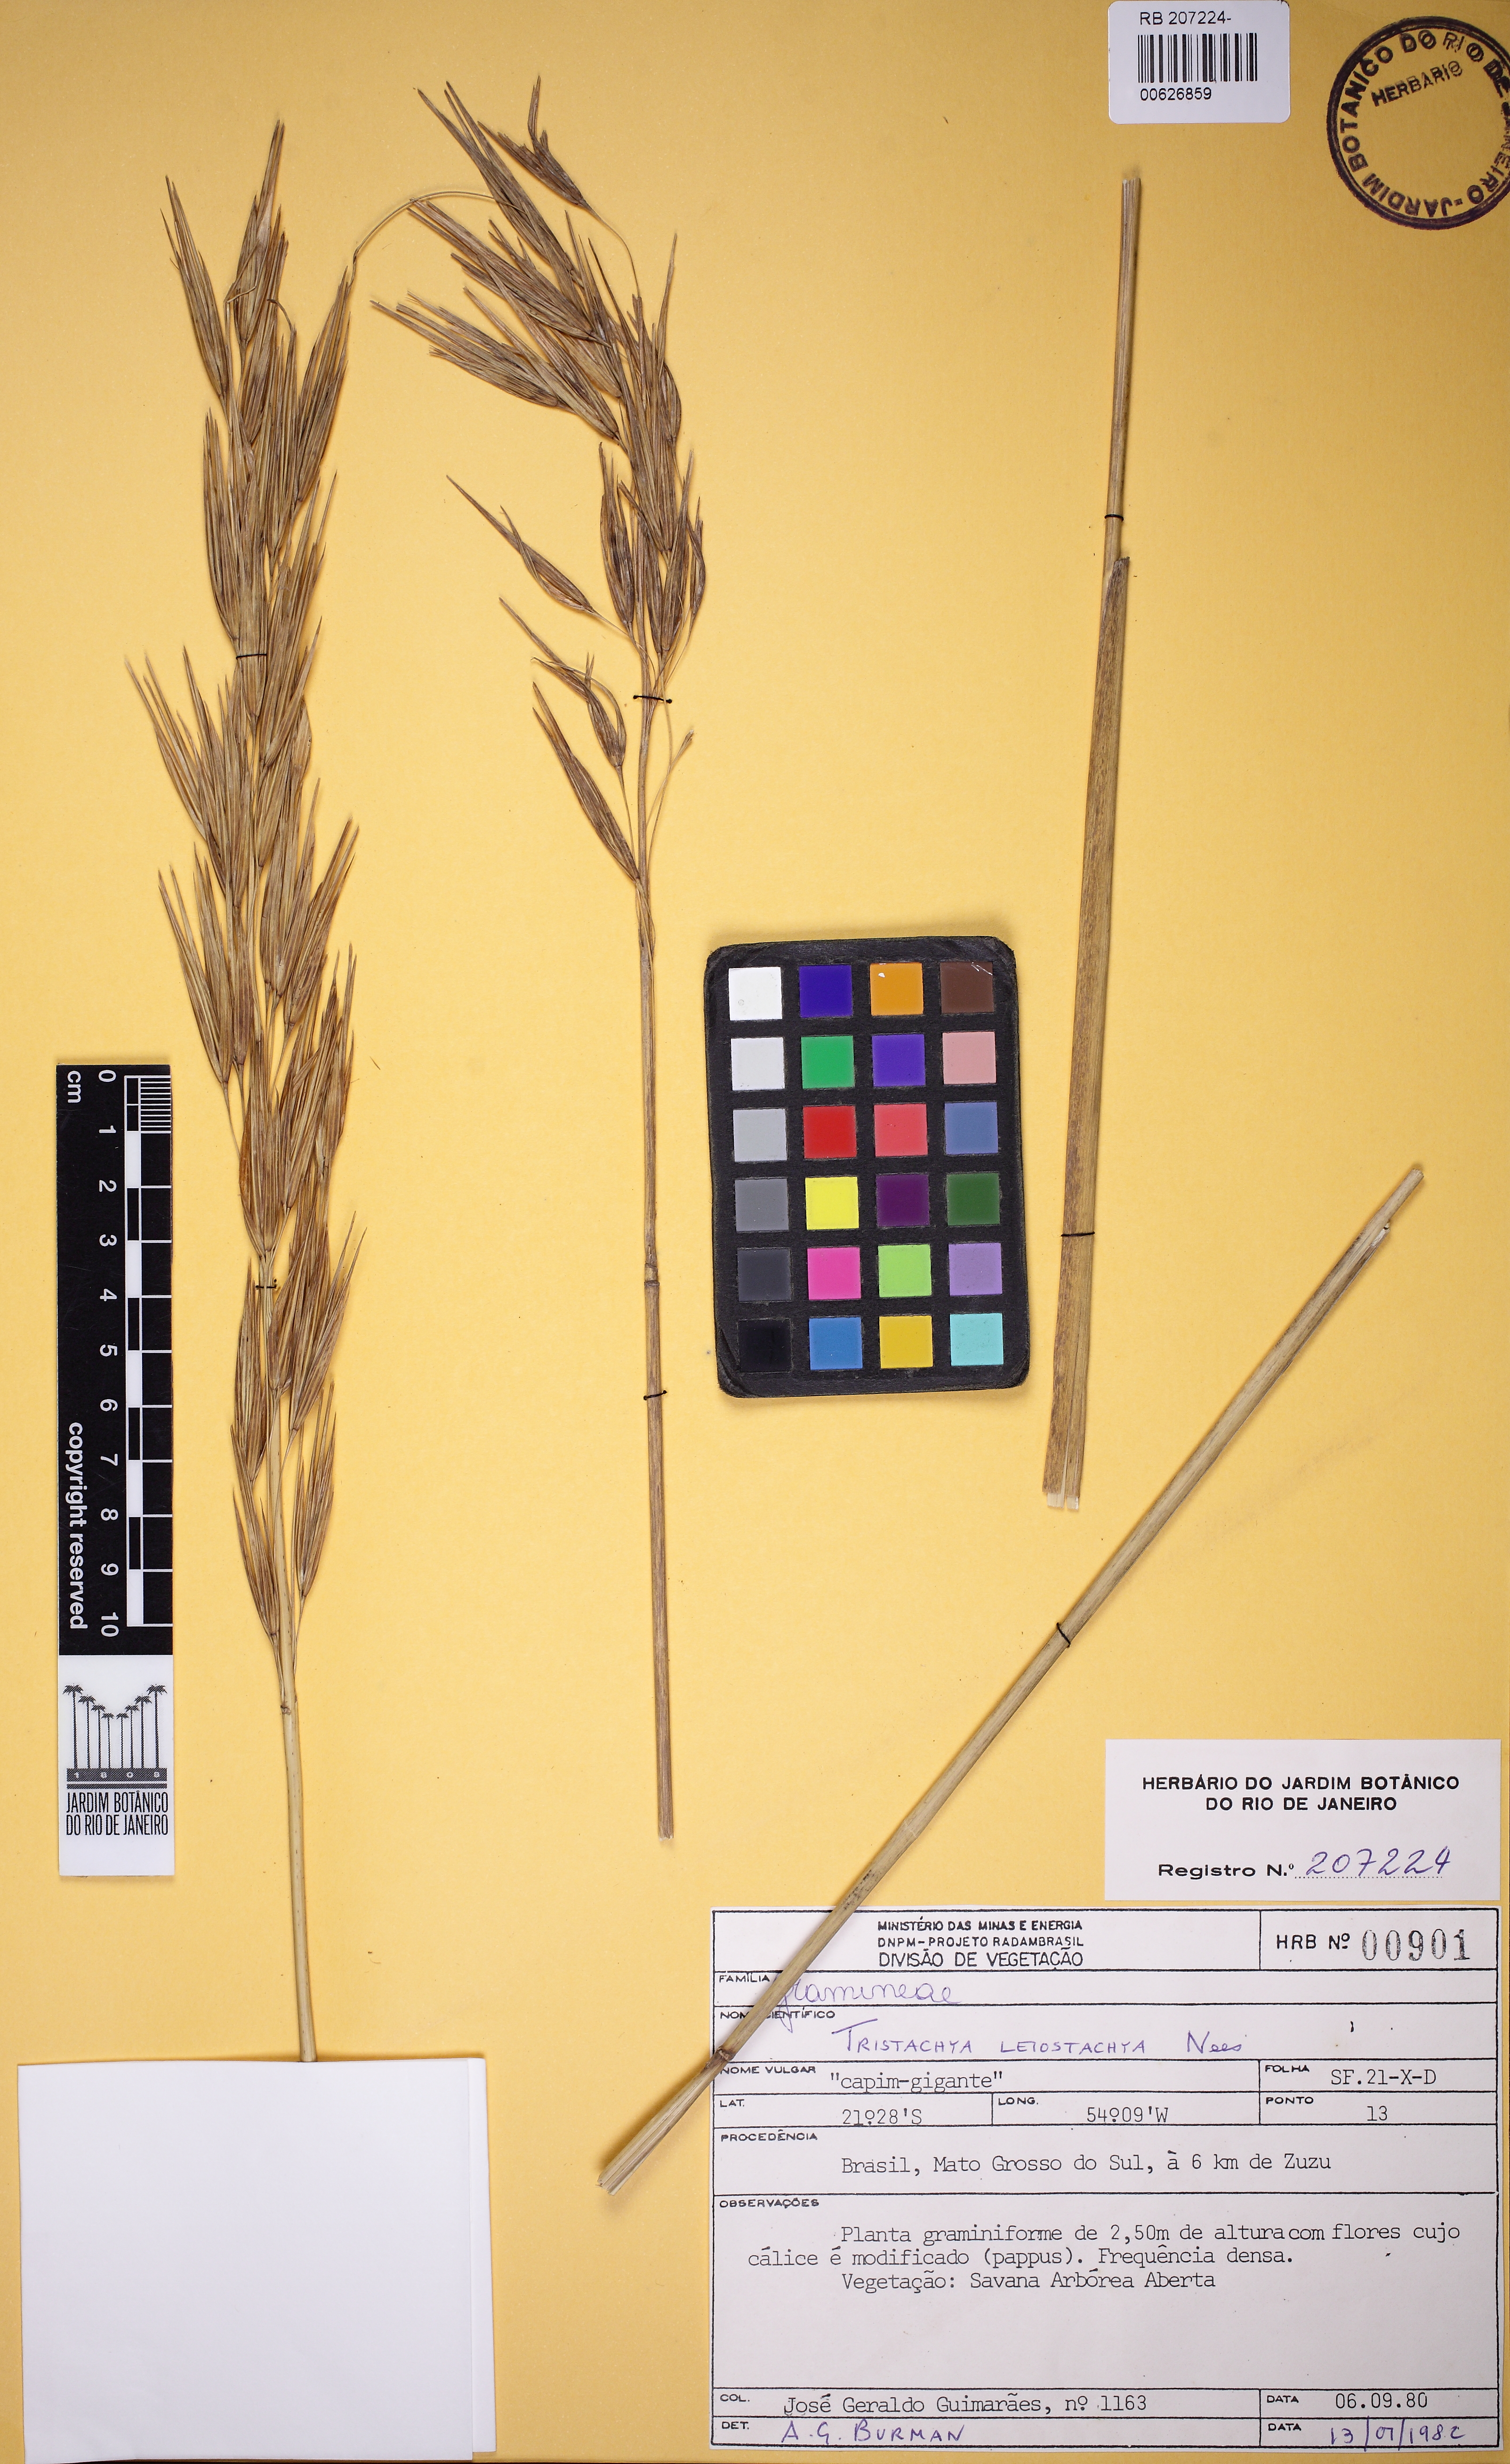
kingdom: Plantae
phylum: Tracheophyta
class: Liliopsida
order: Poales
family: Poaceae
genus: Tristachya
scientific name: Tristachya leiostachya
